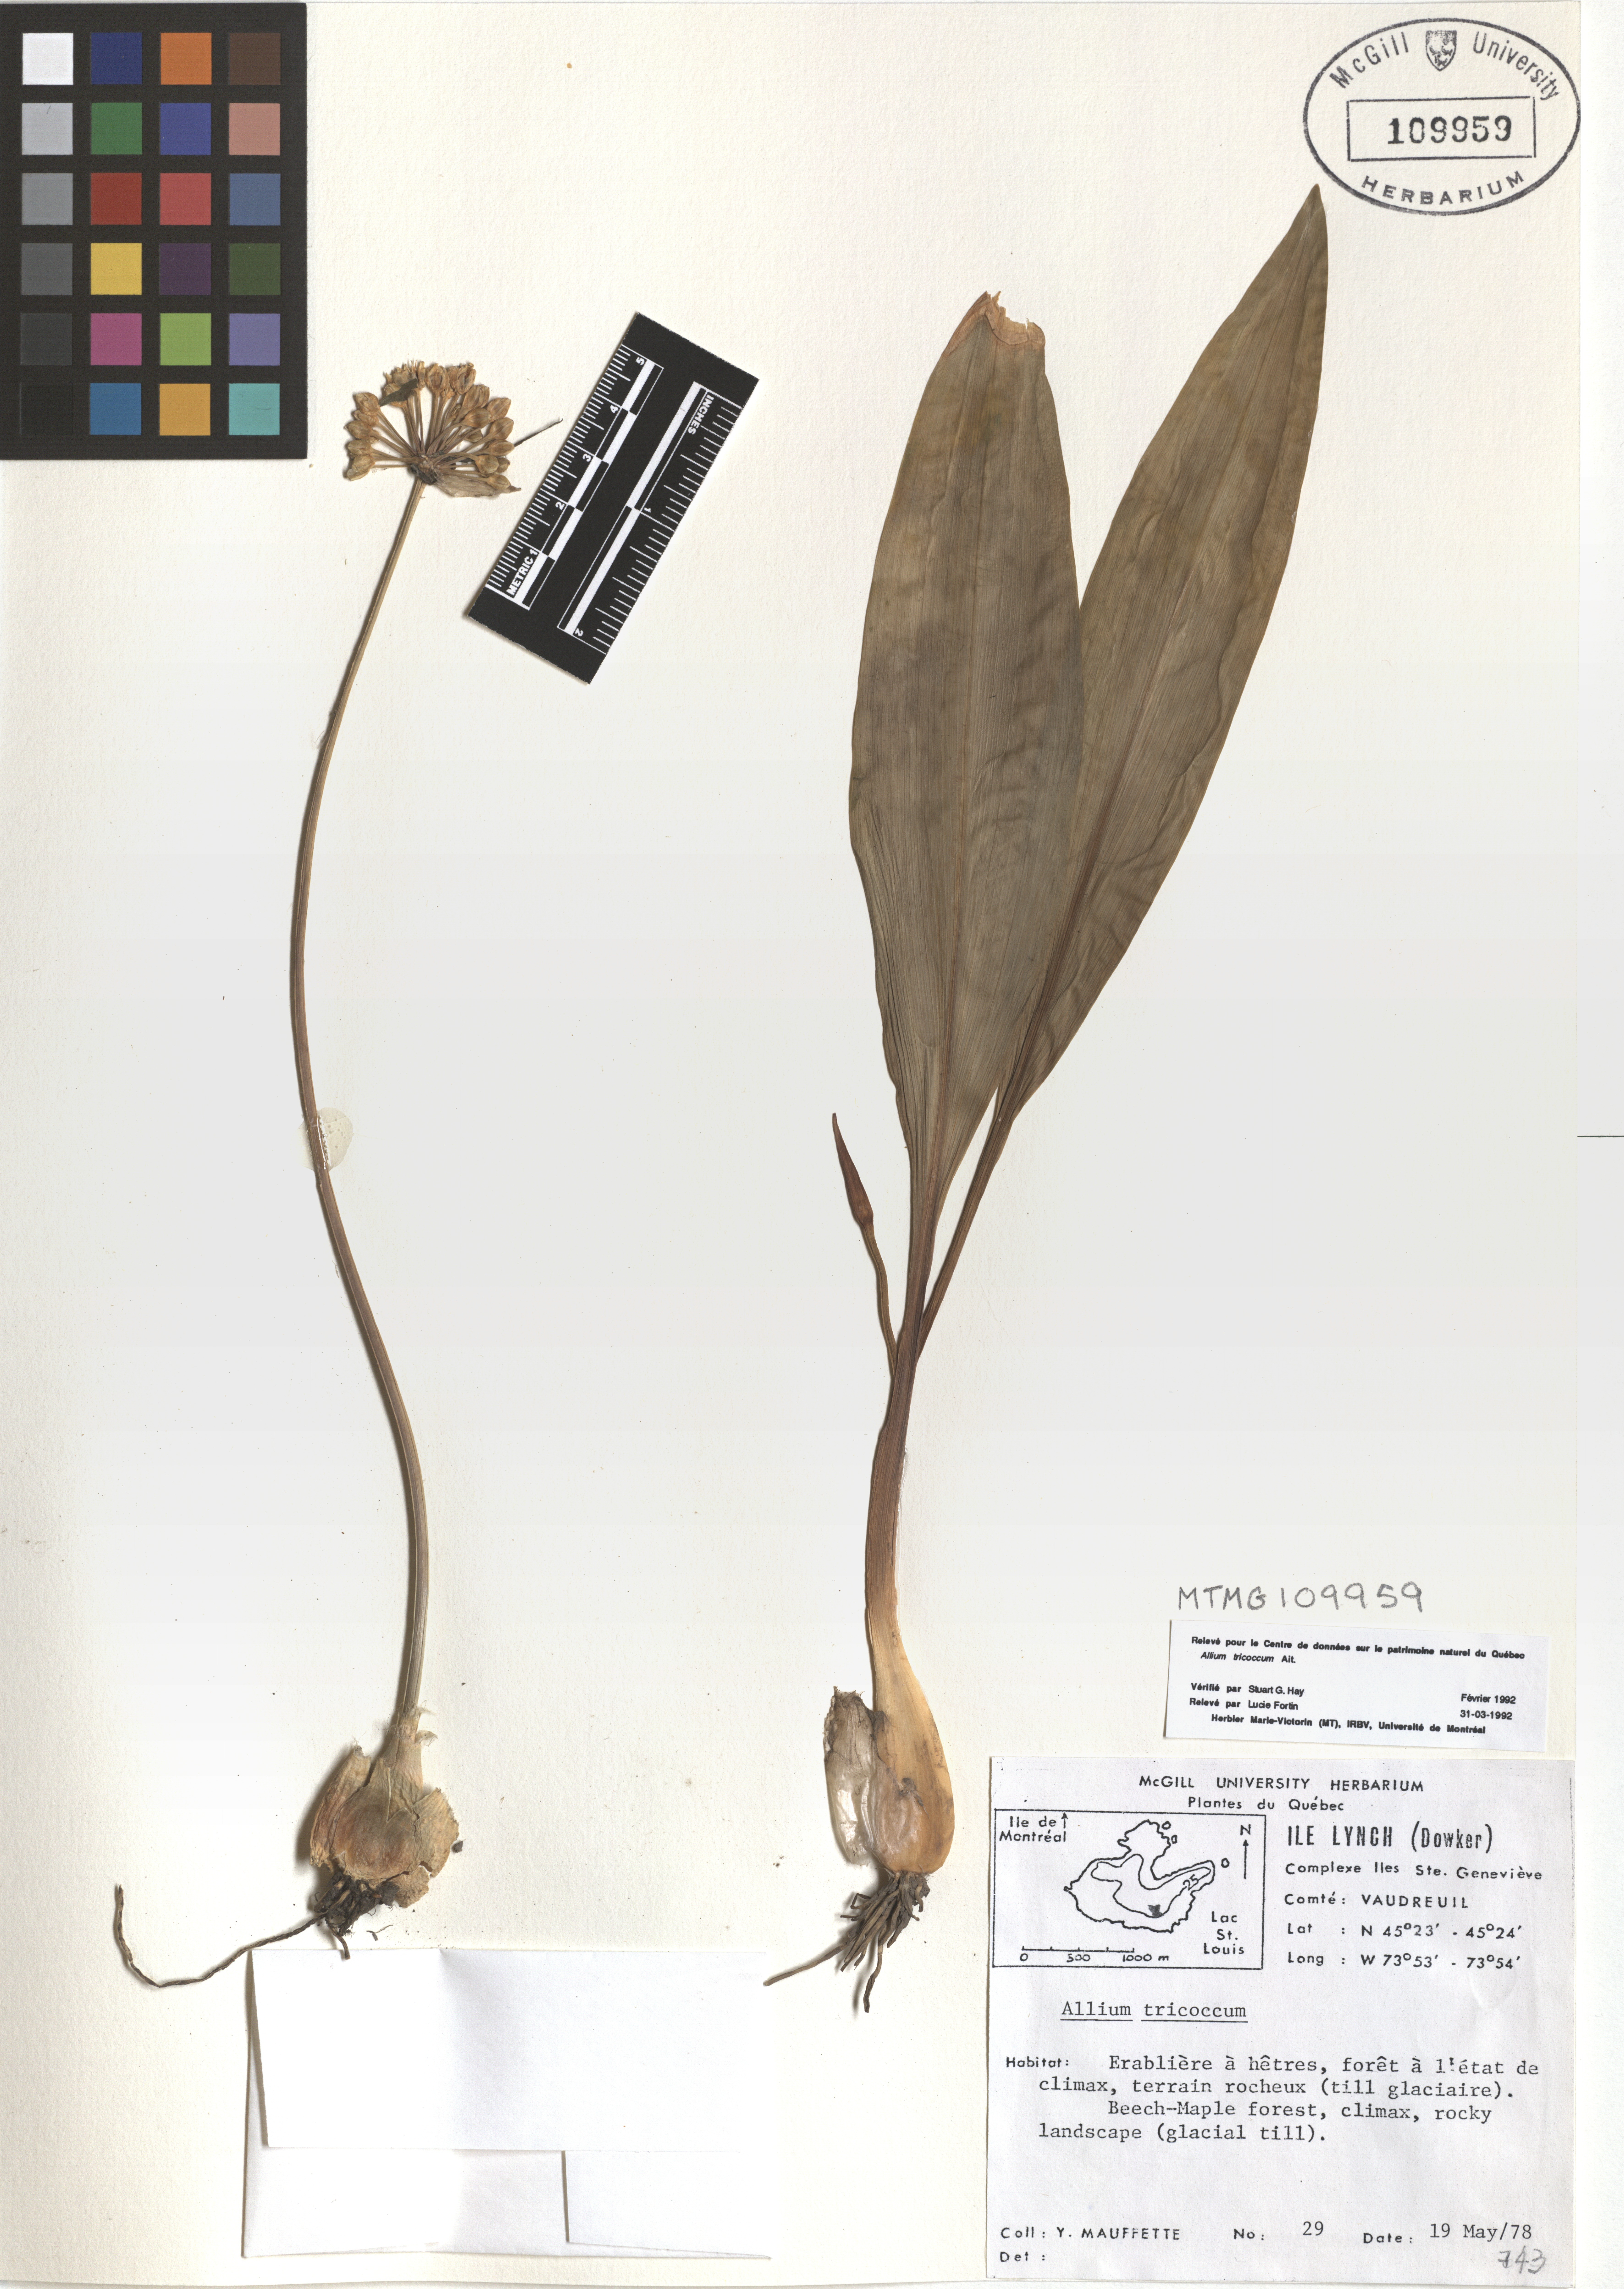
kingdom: Plantae
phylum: Tracheophyta
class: Liliopsida
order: Asparagales
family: Amaryllidaceae
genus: Allium
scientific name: Allium tricoccum
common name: Ramp
